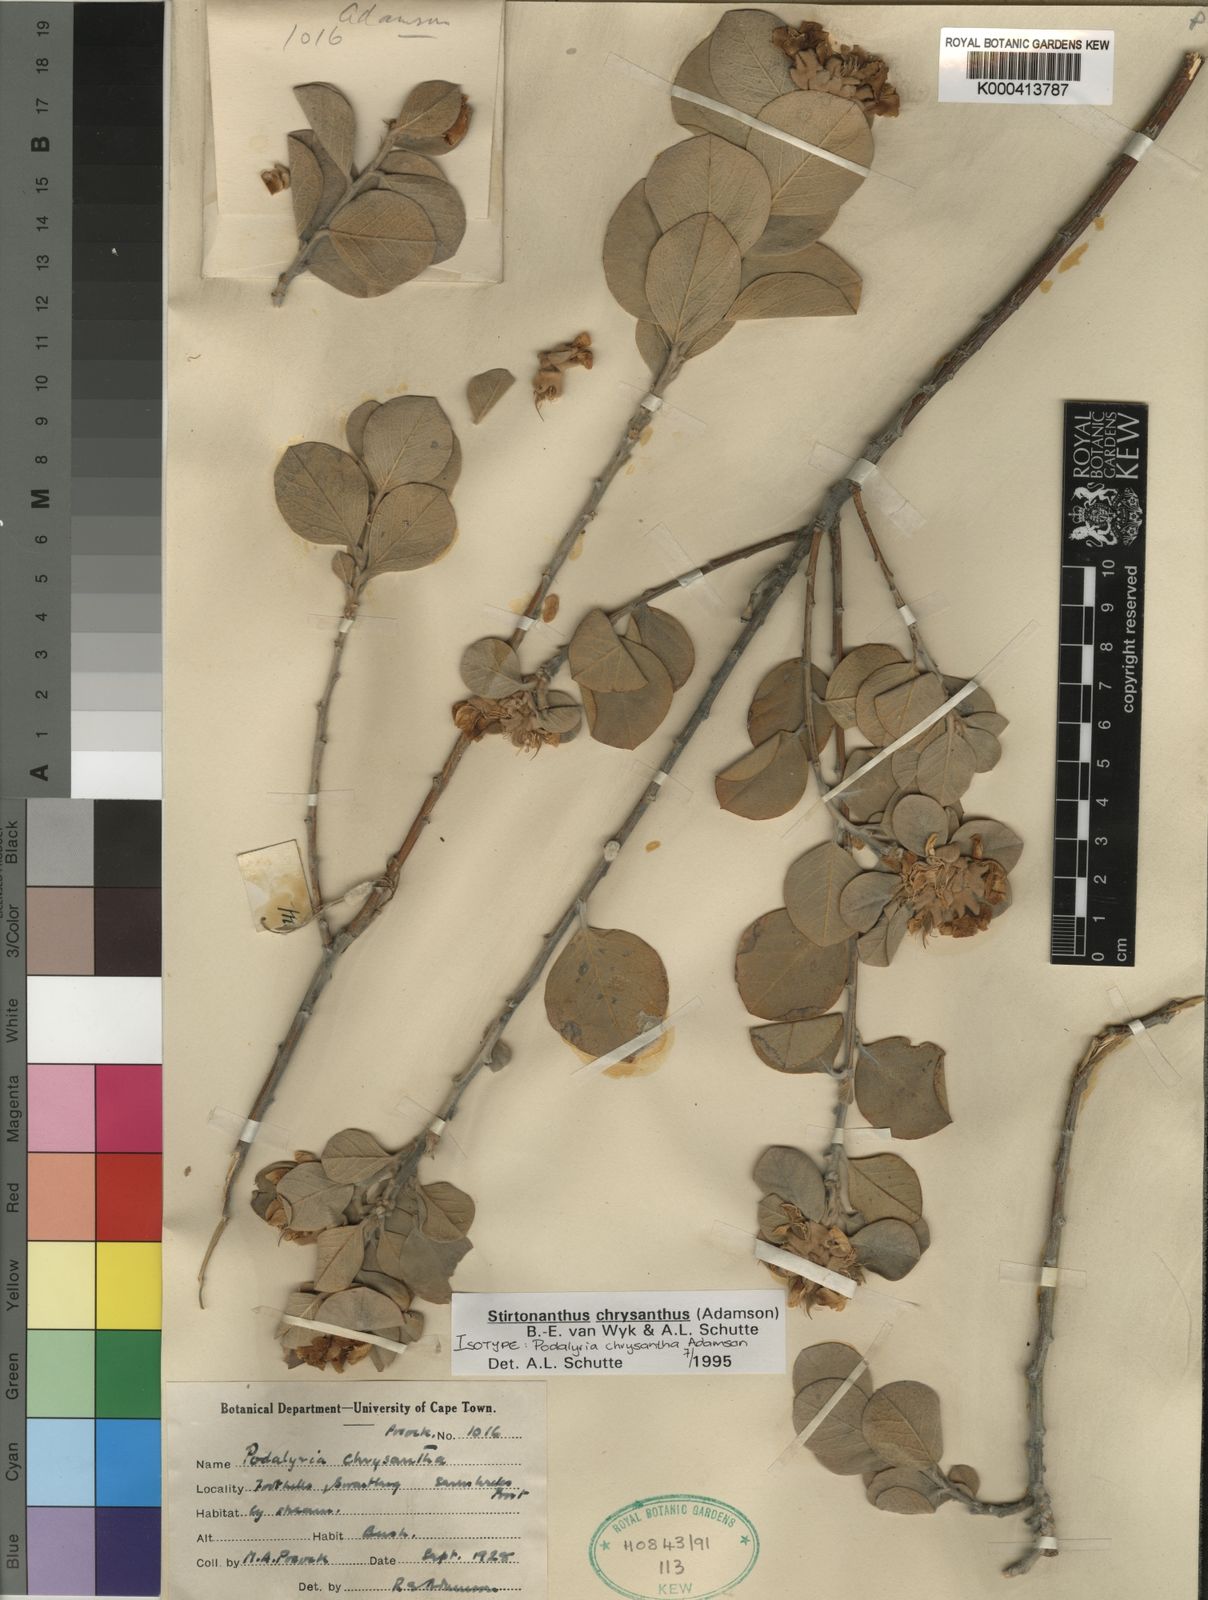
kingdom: Plantae
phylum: Tracheophyta
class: Magnoliopsida
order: Fabales
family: Fabaceae
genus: Stirtonanthus
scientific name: Stirtonanthus chrysanthus
